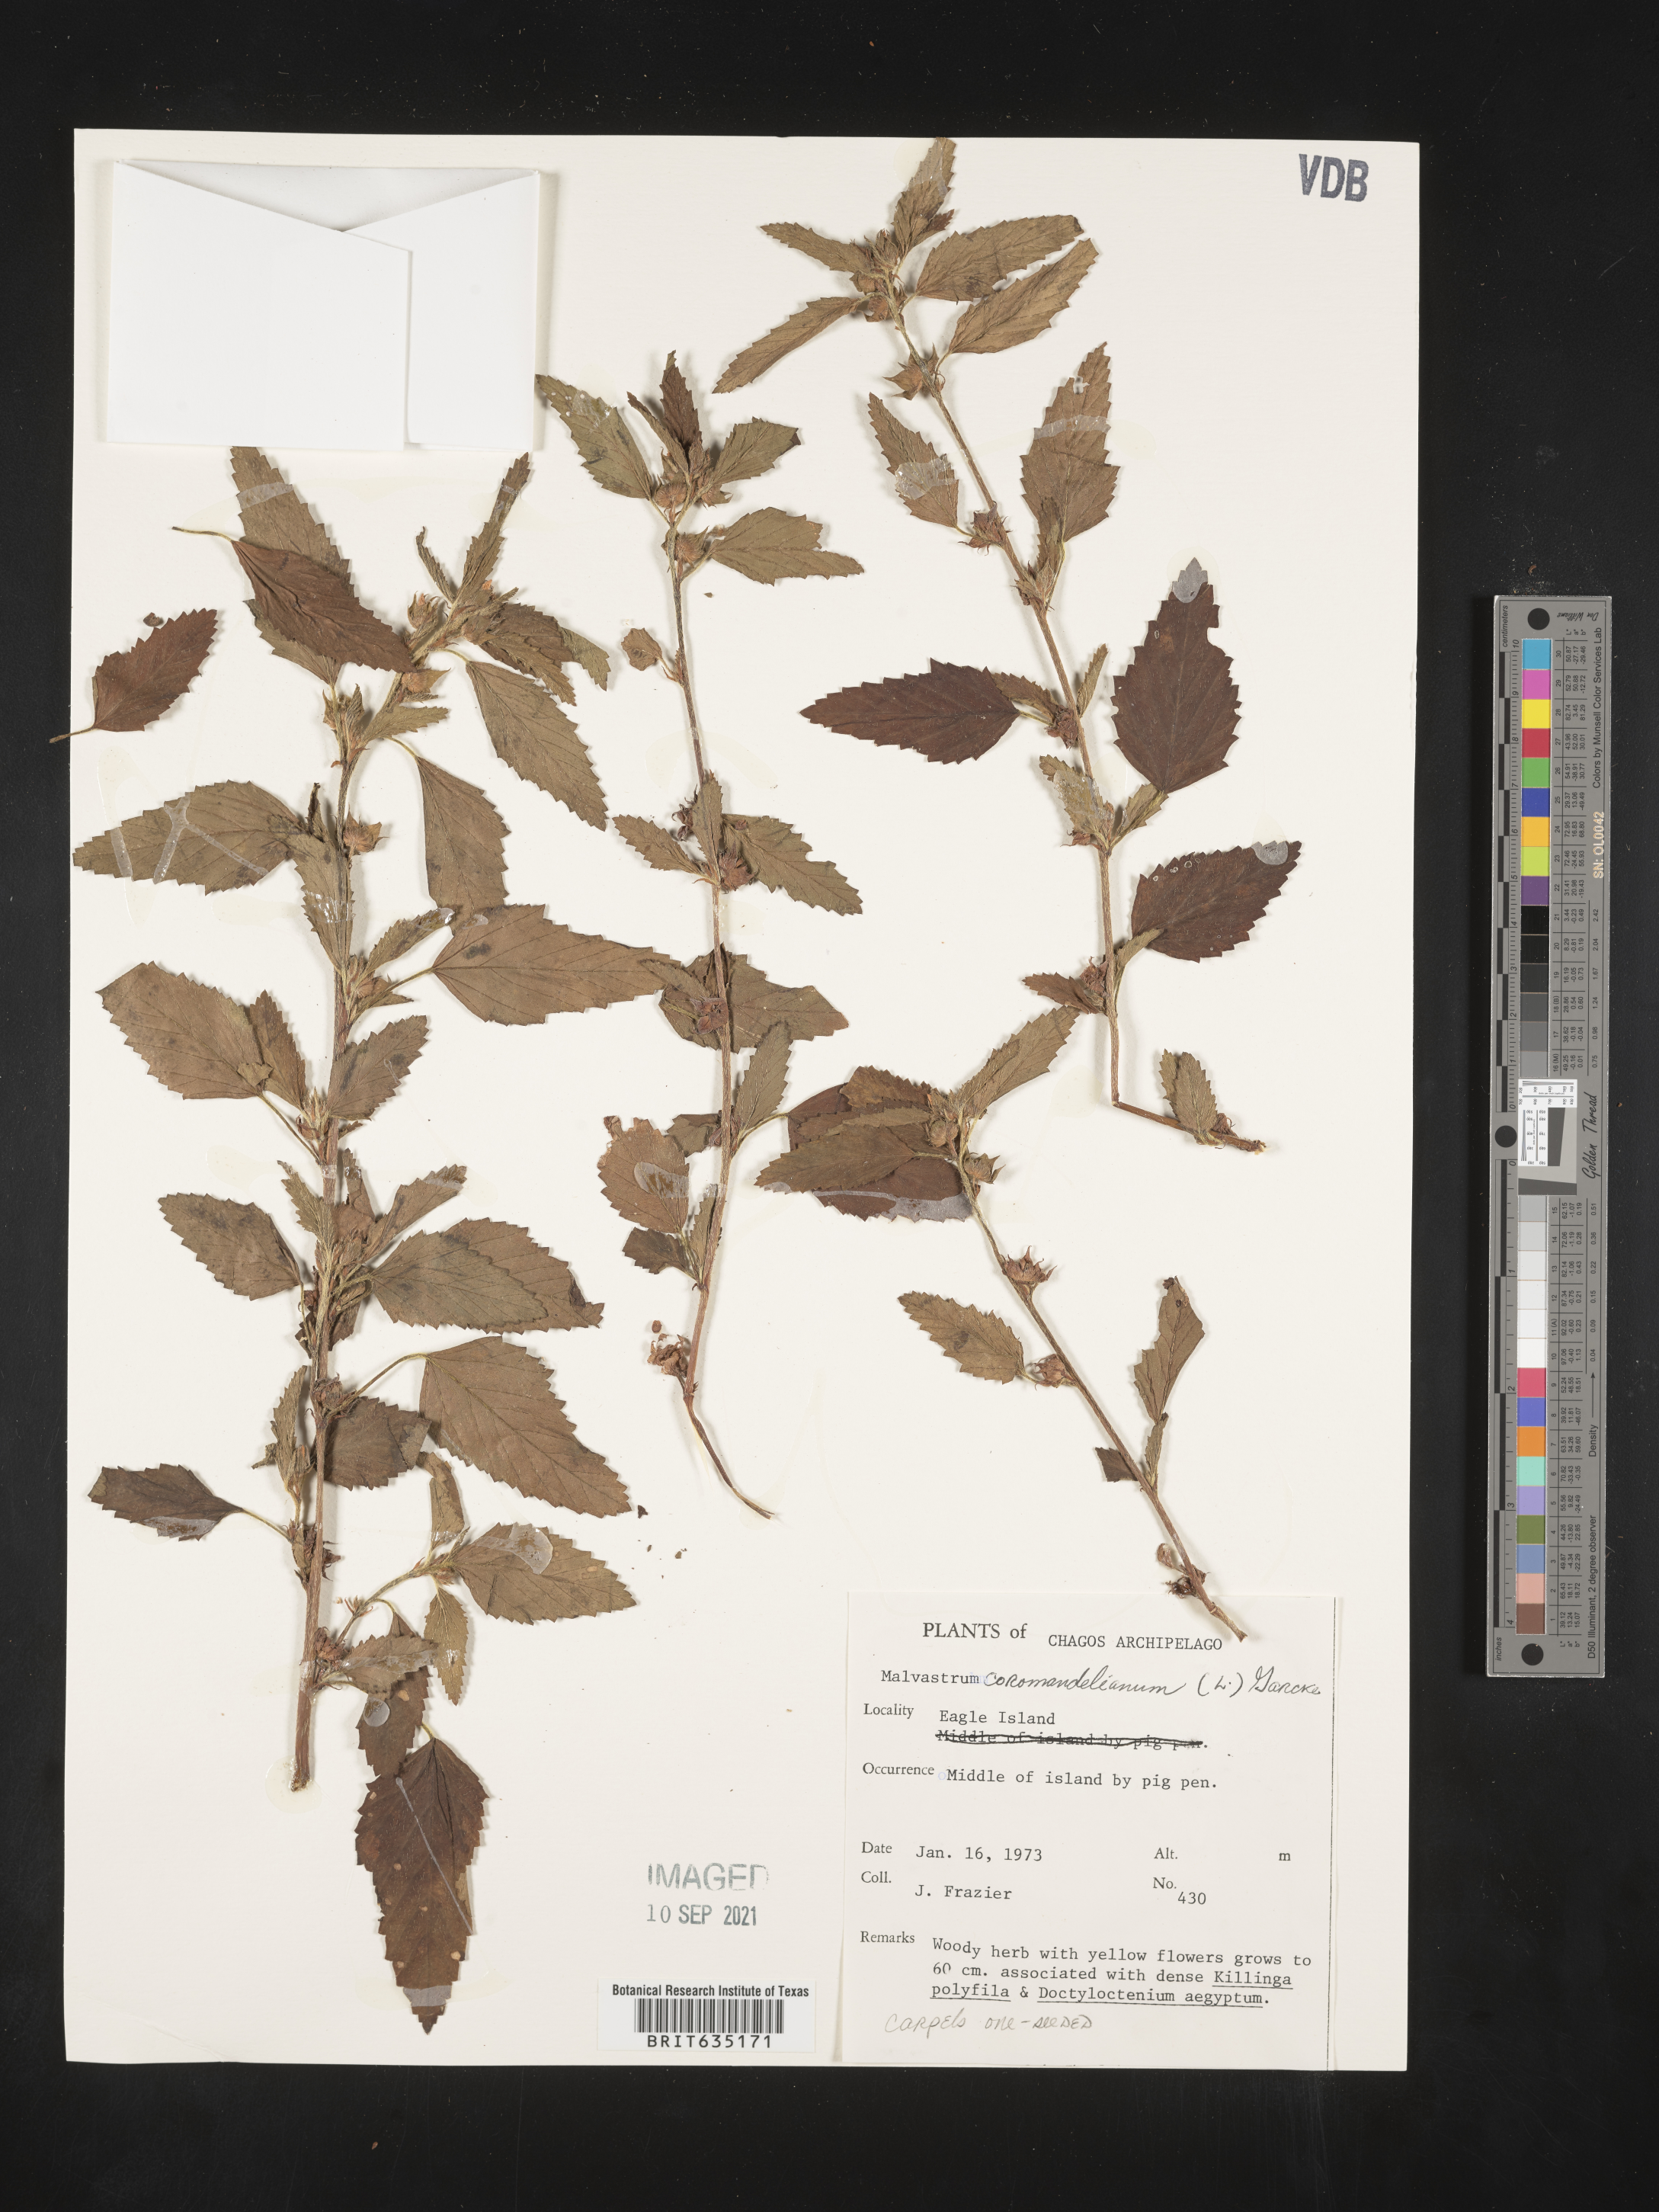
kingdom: Plantae
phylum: Tracheophyta
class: Magnoliopsida
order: Malvales
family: Malvaceae
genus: Malvastrum
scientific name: Malvastrum
